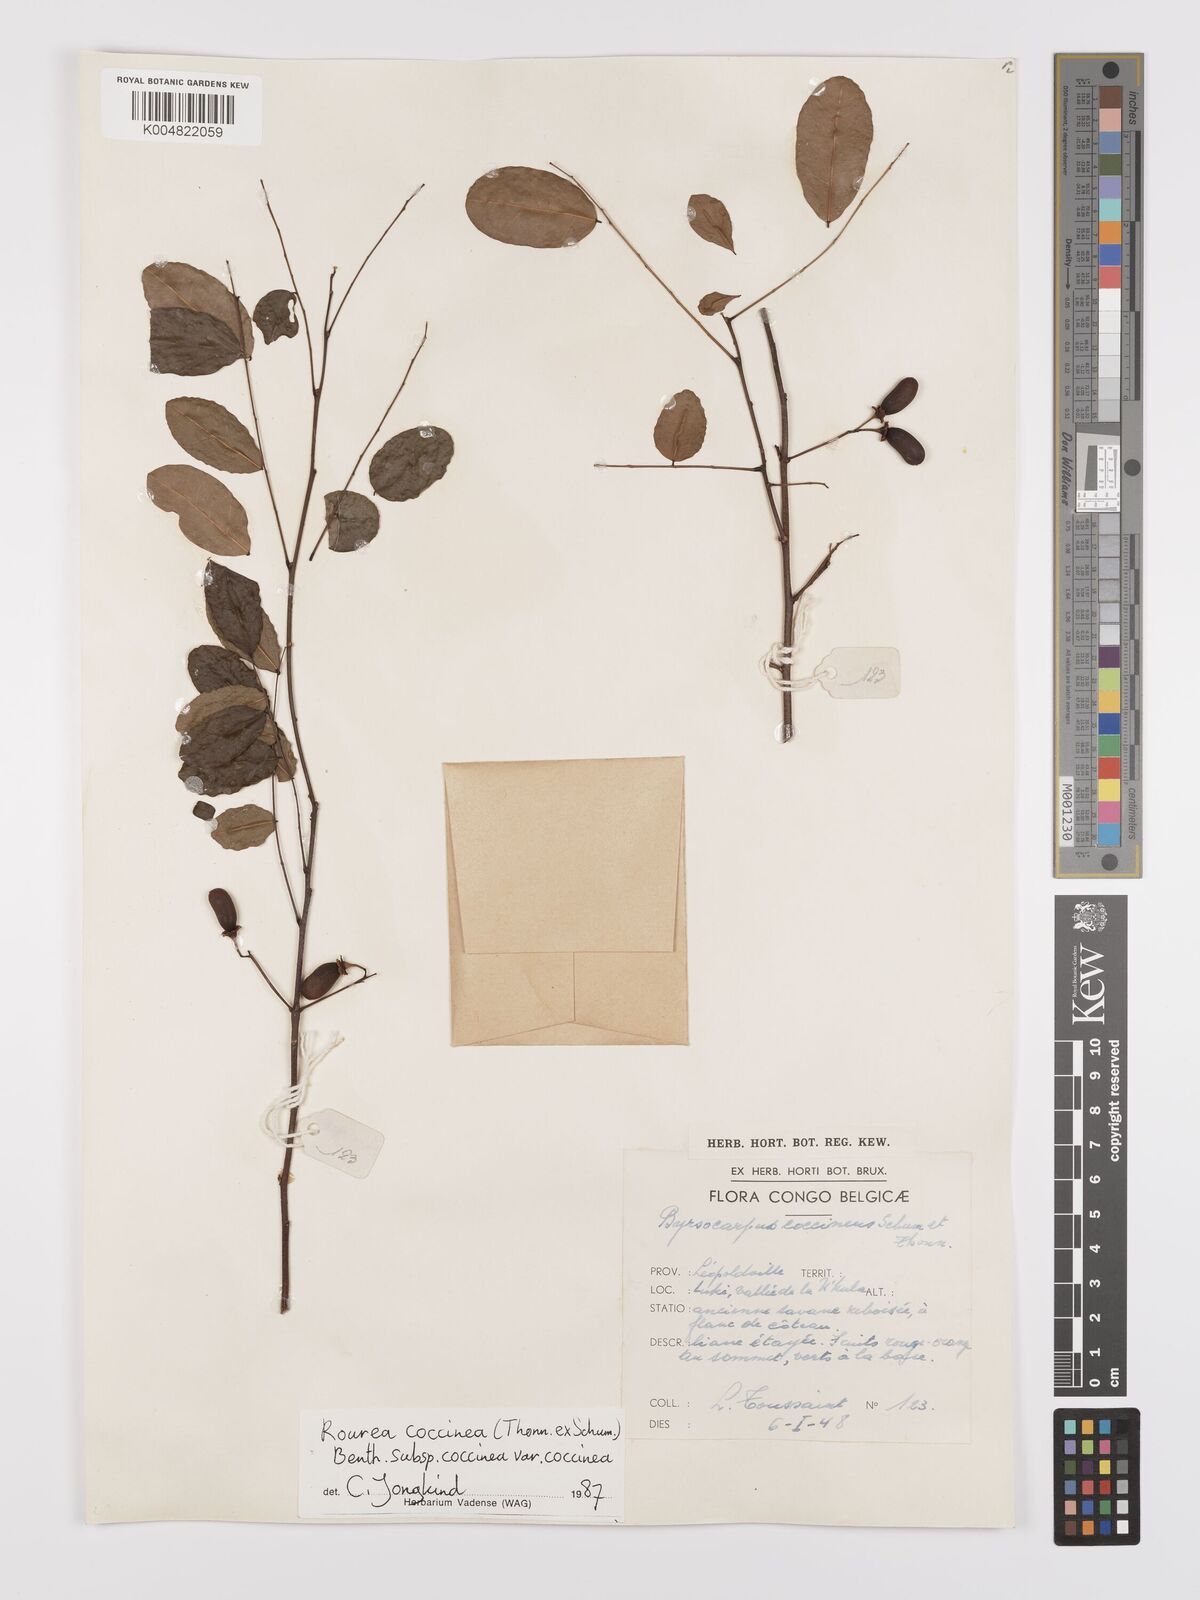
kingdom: Plantae
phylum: Tracheophyta
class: Magnoliopsida
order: Oxalidales
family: Connaraceae
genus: Rourea
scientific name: Rourea coccinea
